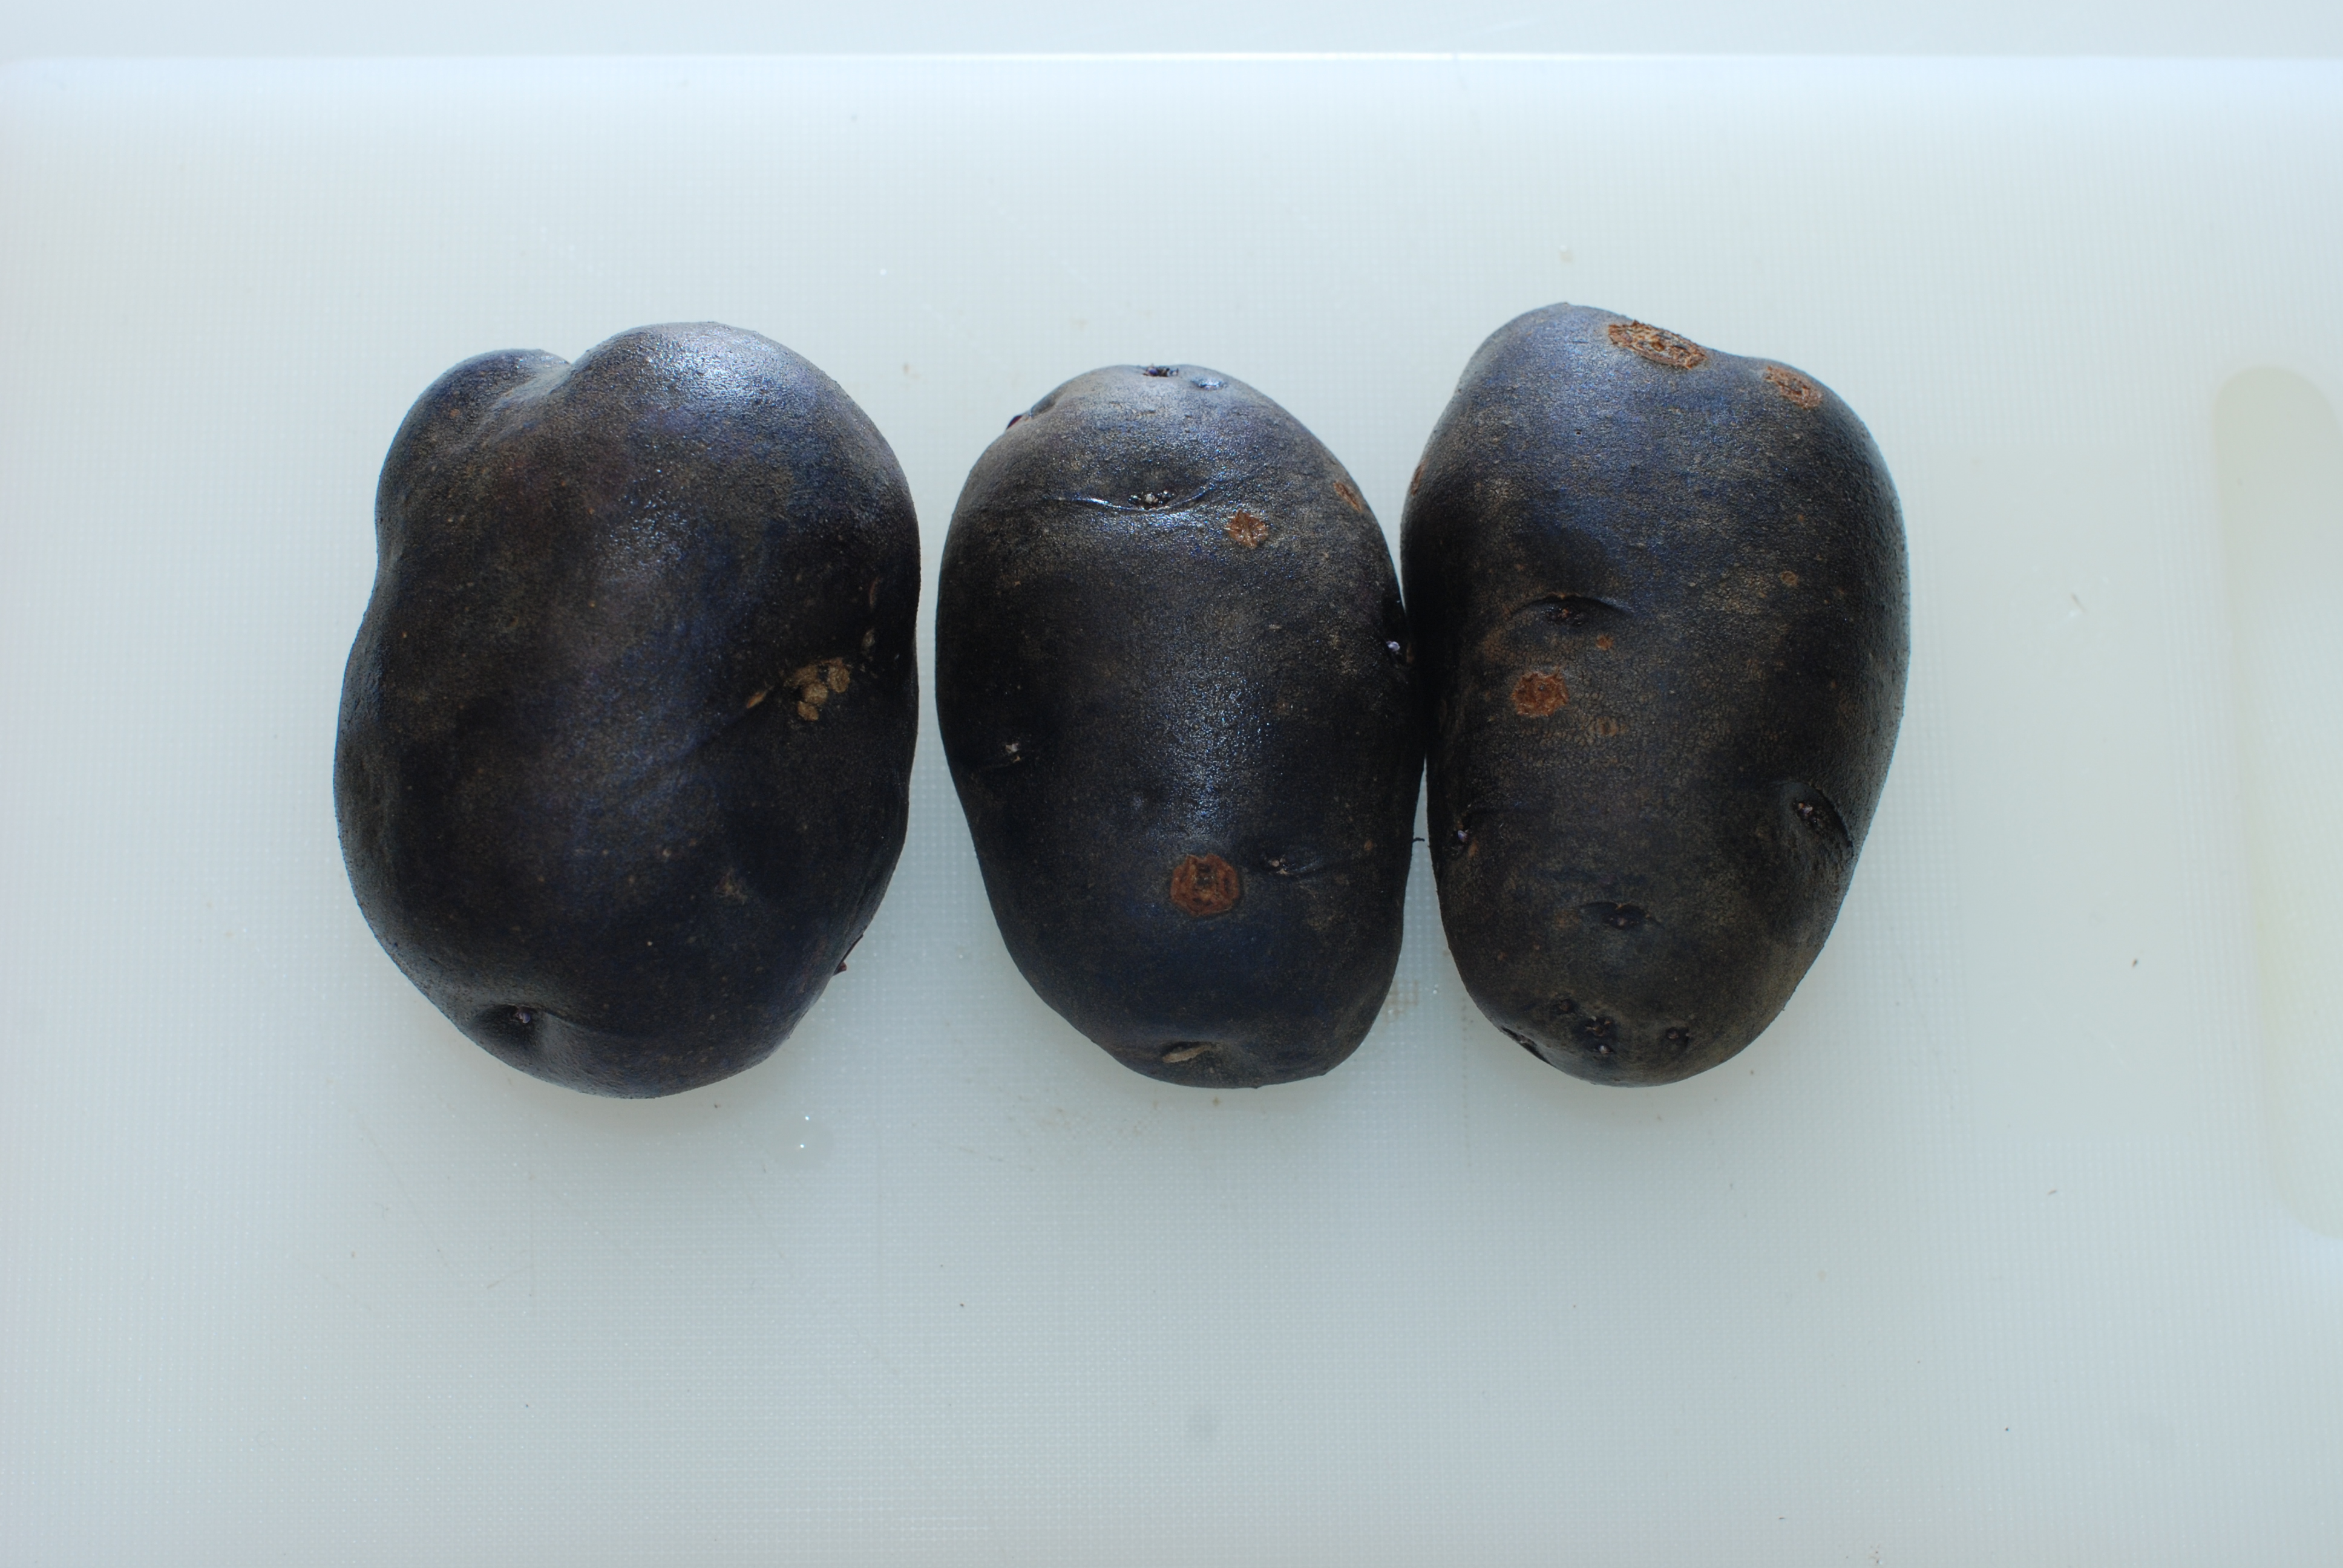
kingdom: Plantae
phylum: Tracheophyta
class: Magnoliopsida
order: Solanales
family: Solanaceae
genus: Solanum
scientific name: Solanum tuberosum
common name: Potato
